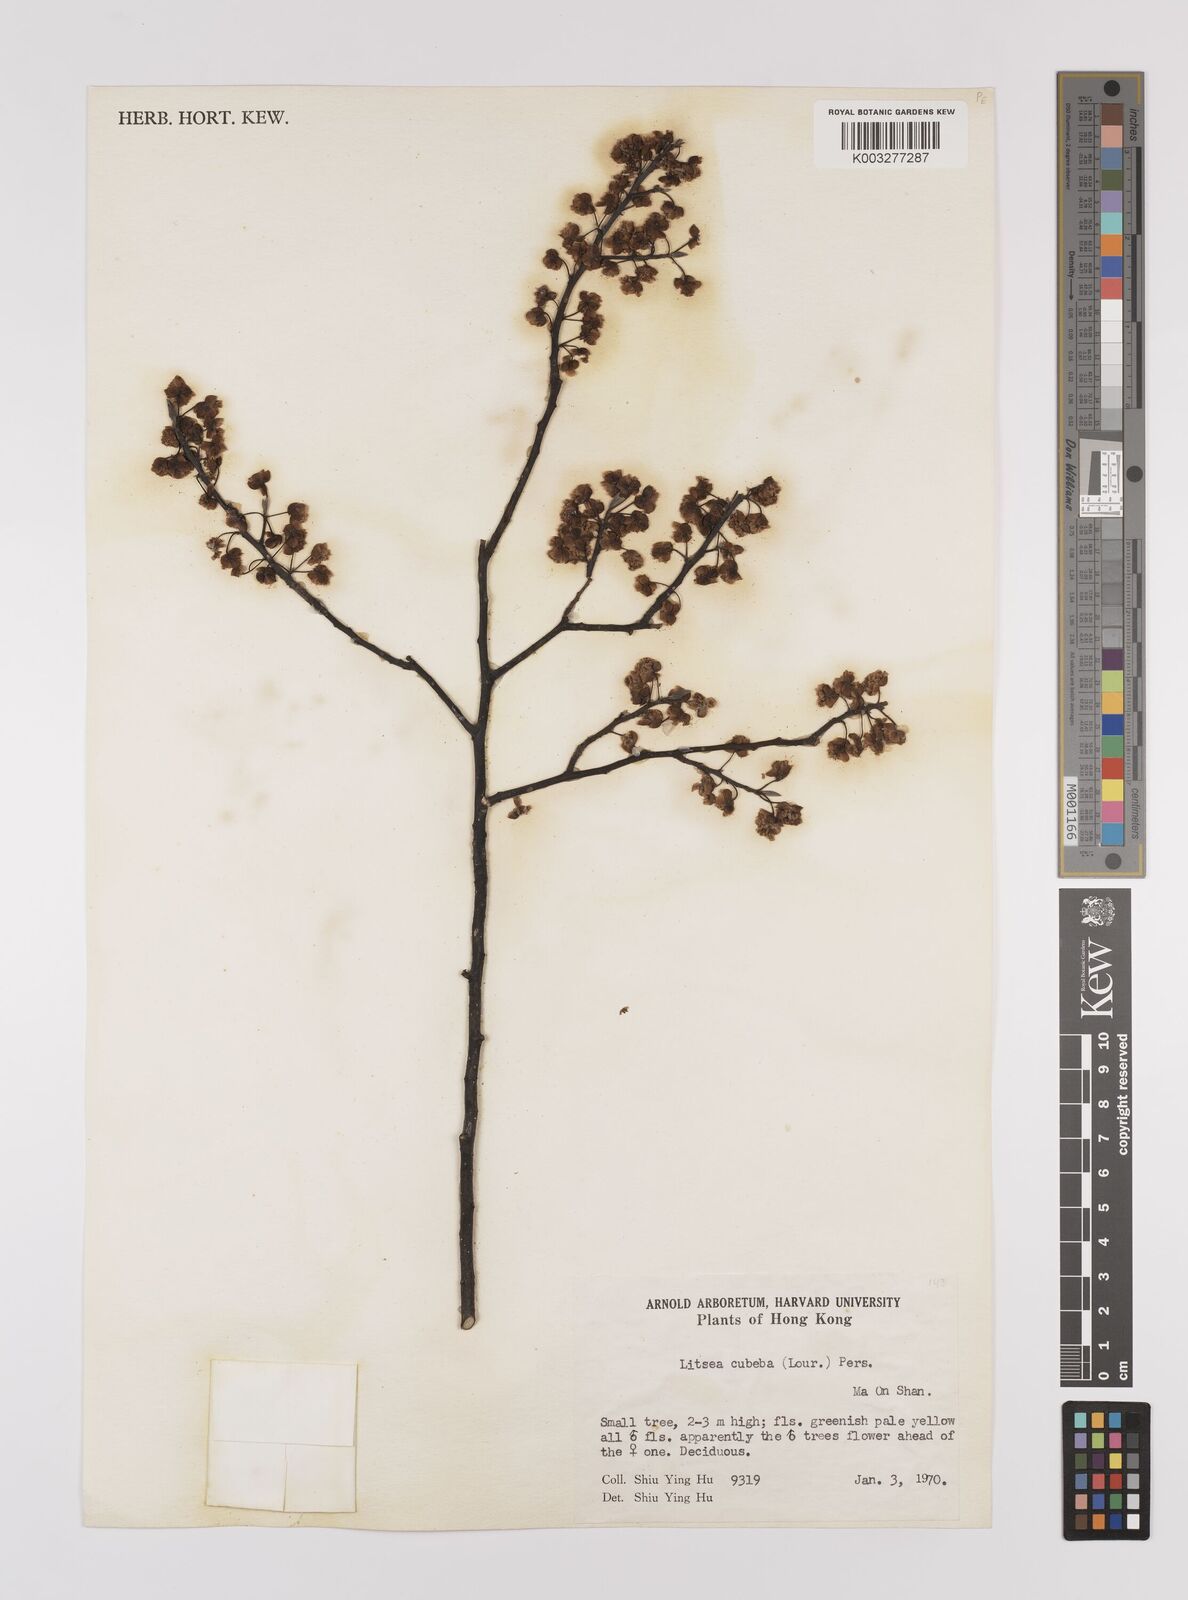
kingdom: Plantae
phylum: Tracheophyta
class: Magnoliopsida
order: Laurales
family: Lauraceae
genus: Litsea
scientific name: Litsea cubeba
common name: Mountain-pepper
